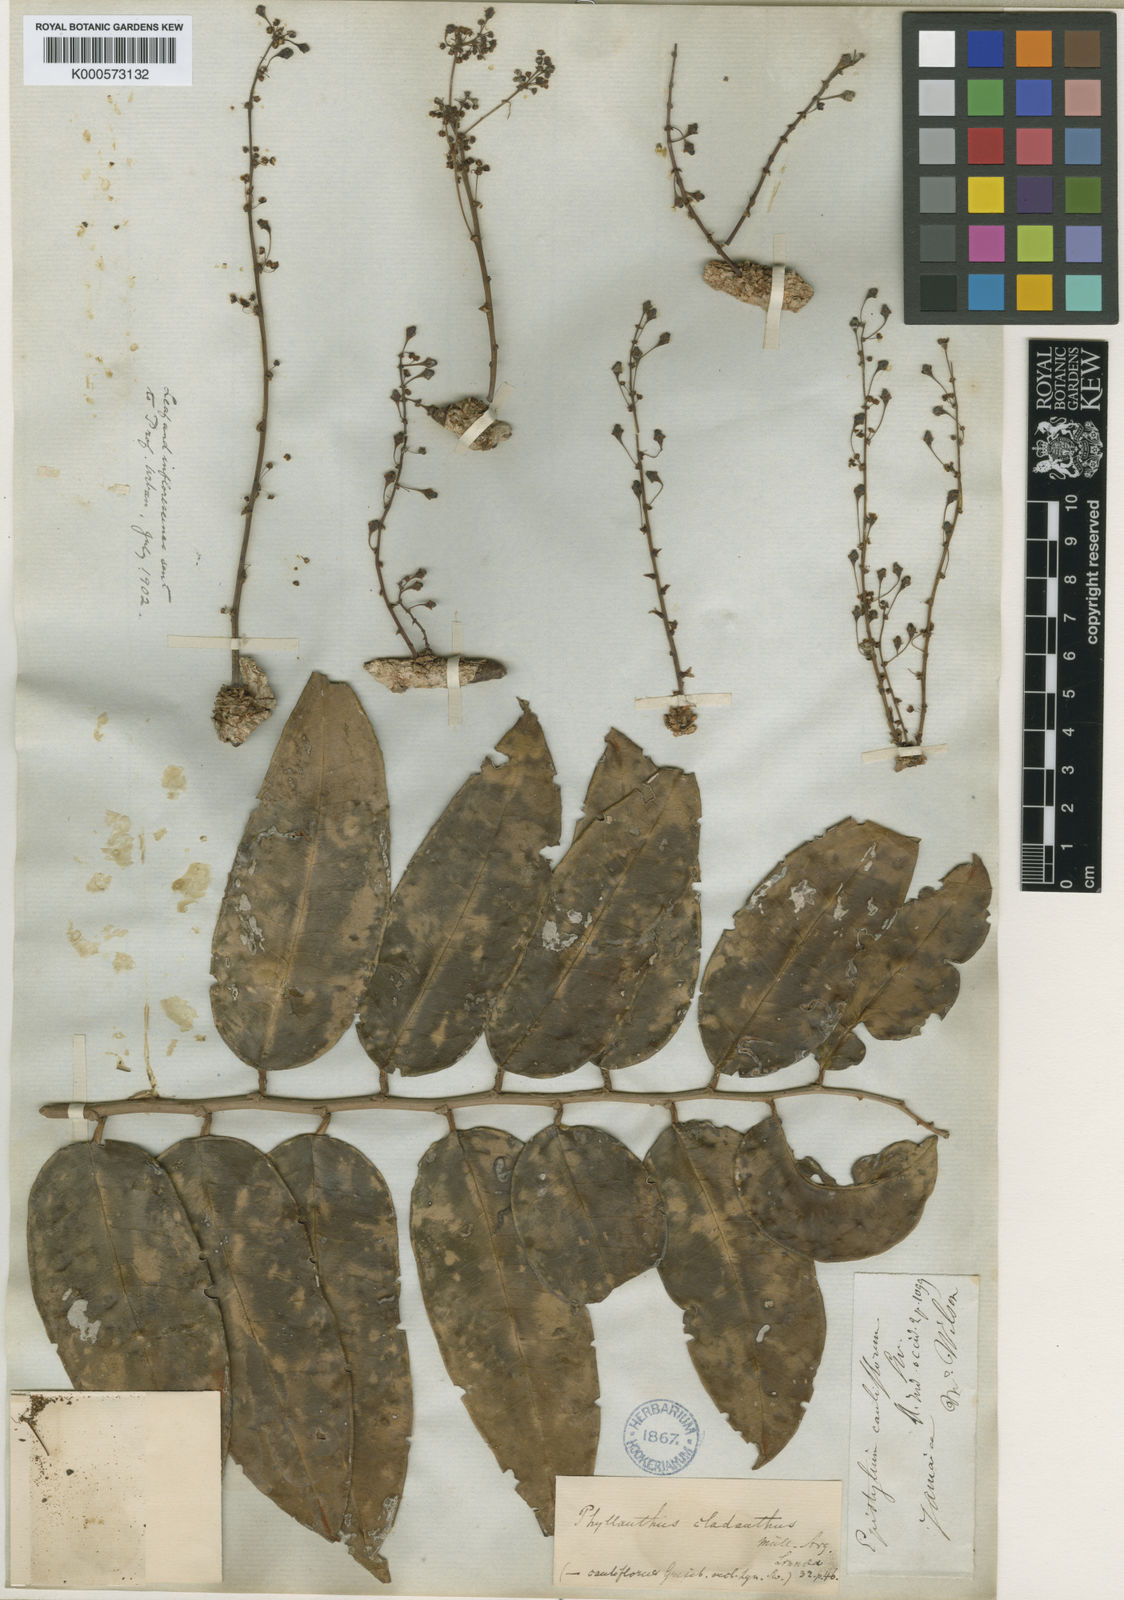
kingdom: Plantae
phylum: Tracheophyta
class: Magnoliopsida
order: Malpighiales
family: Phyllanthaceae
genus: Phyllanthus
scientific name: Phyllanthus
